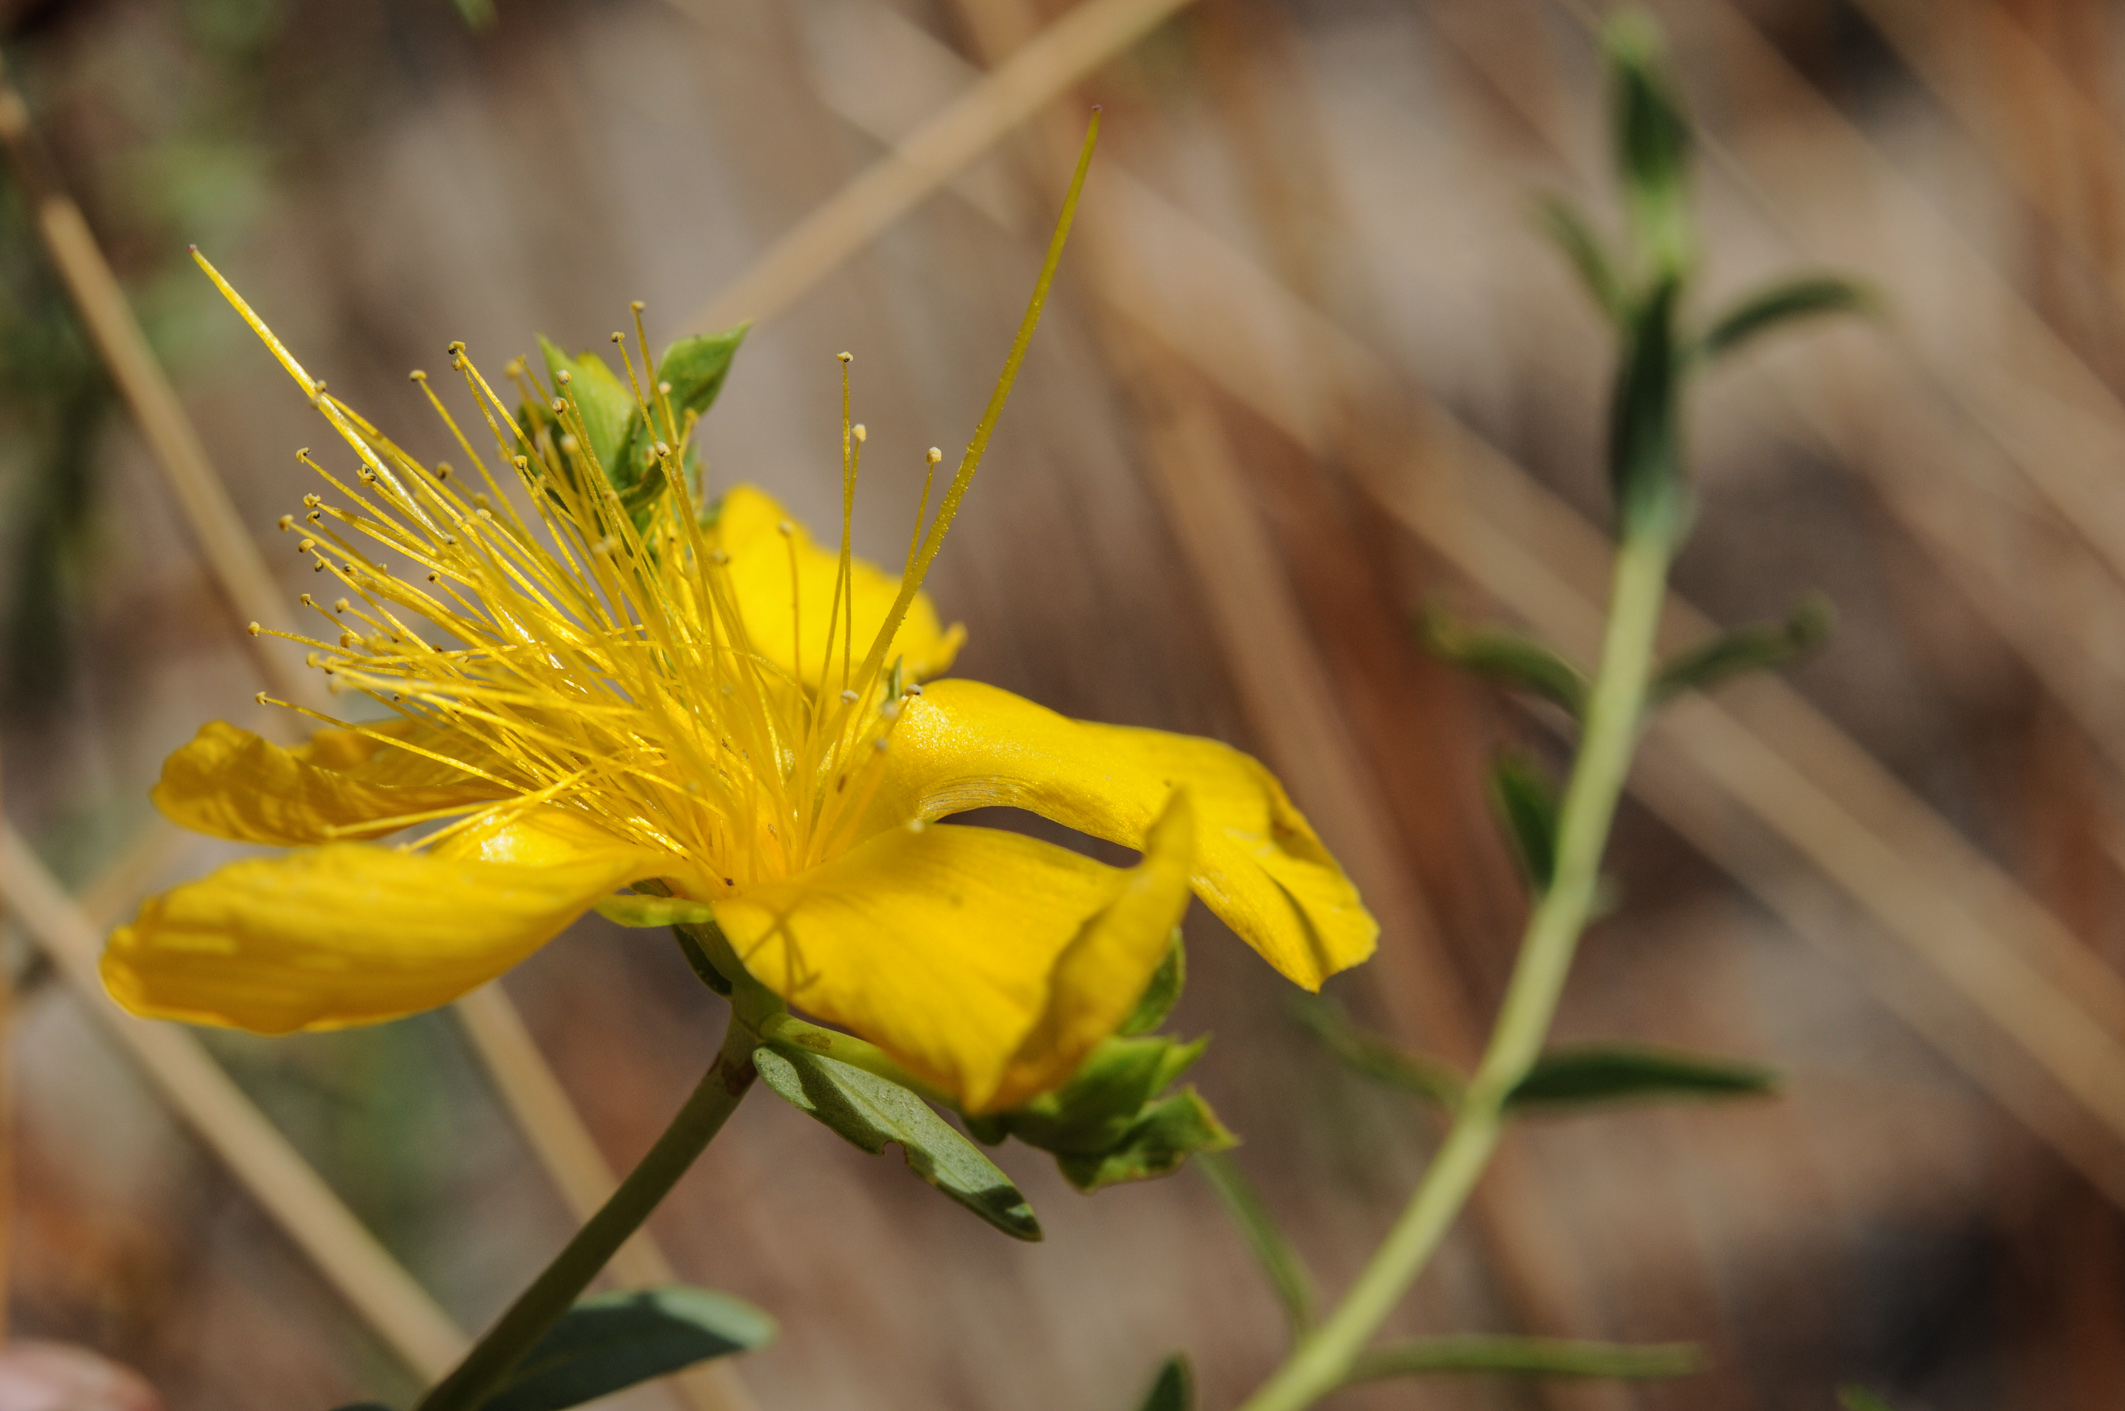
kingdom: Plantae
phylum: Tracheophyta
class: Magnoliopsida
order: Malpighiales
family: Hypericaceae
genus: Hypericum
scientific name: Hypericum olympicum
